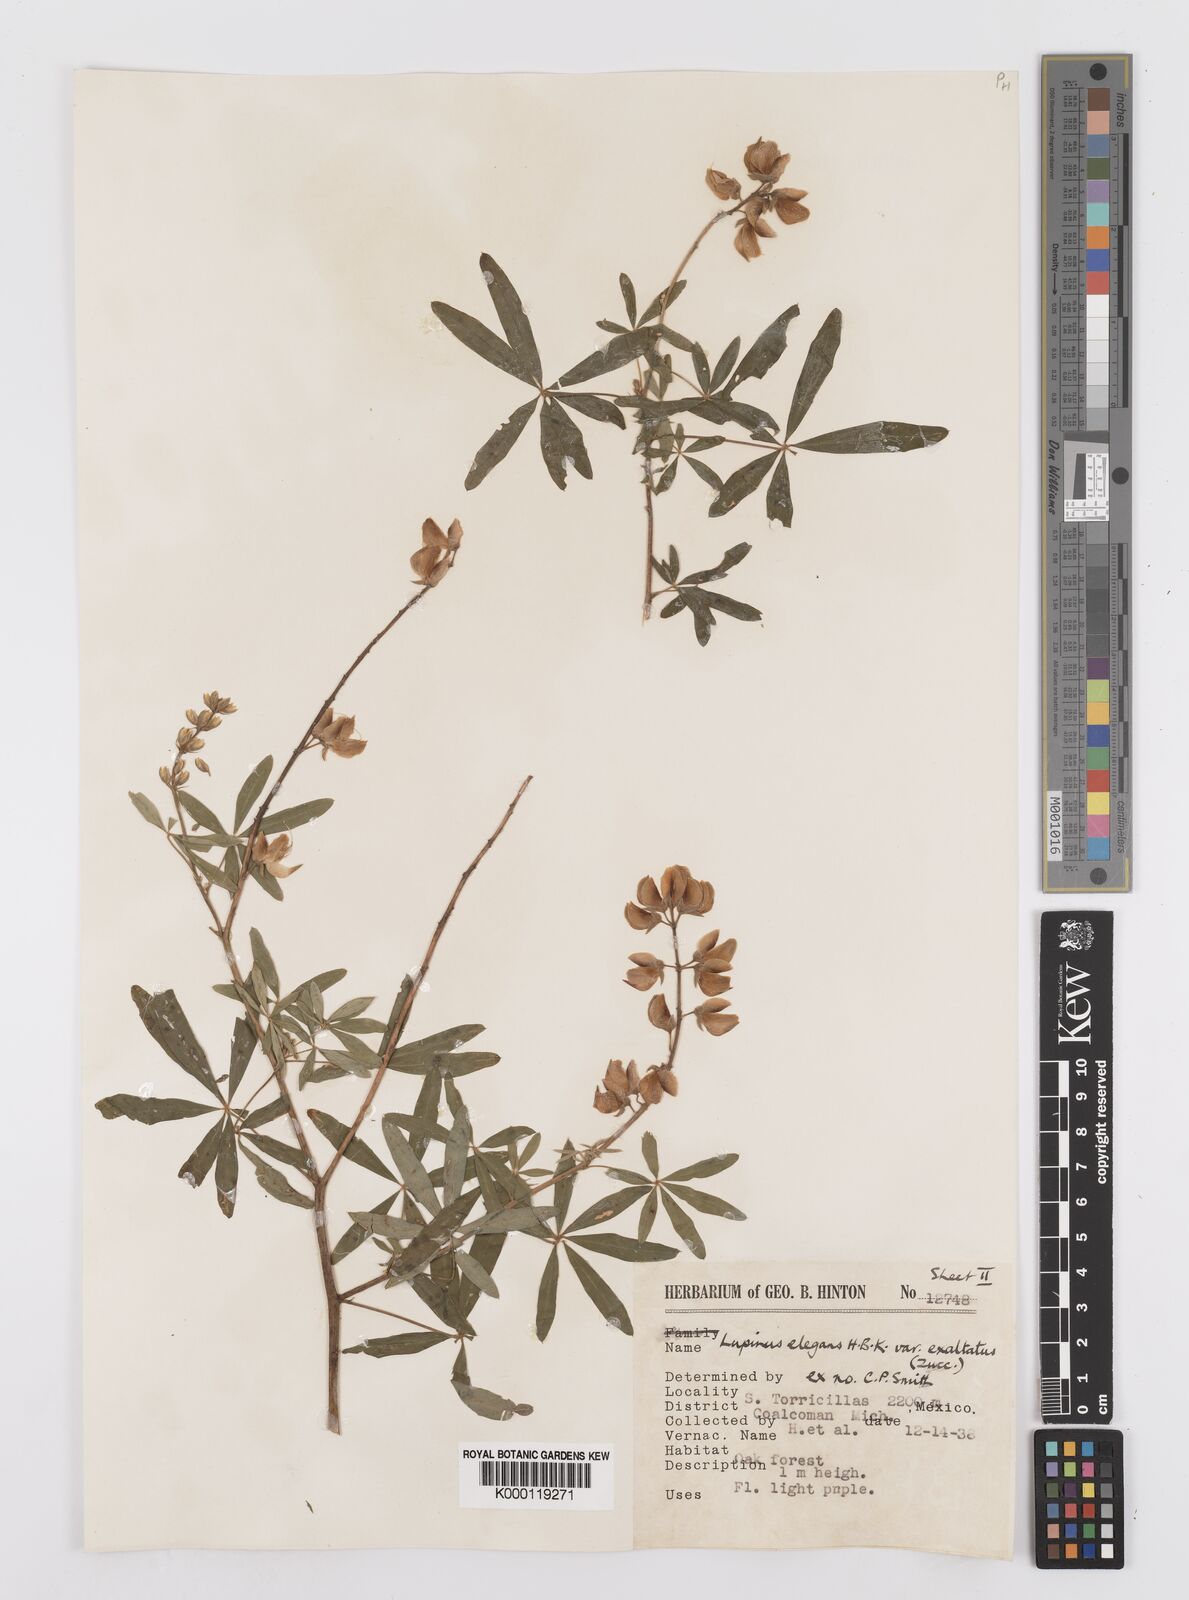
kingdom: Plantae
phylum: Tracheophyta
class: Magnoliopsida
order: Fabales
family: Fabaceae
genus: Lupinus
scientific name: Lupinus elegans
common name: Mexican lupine
